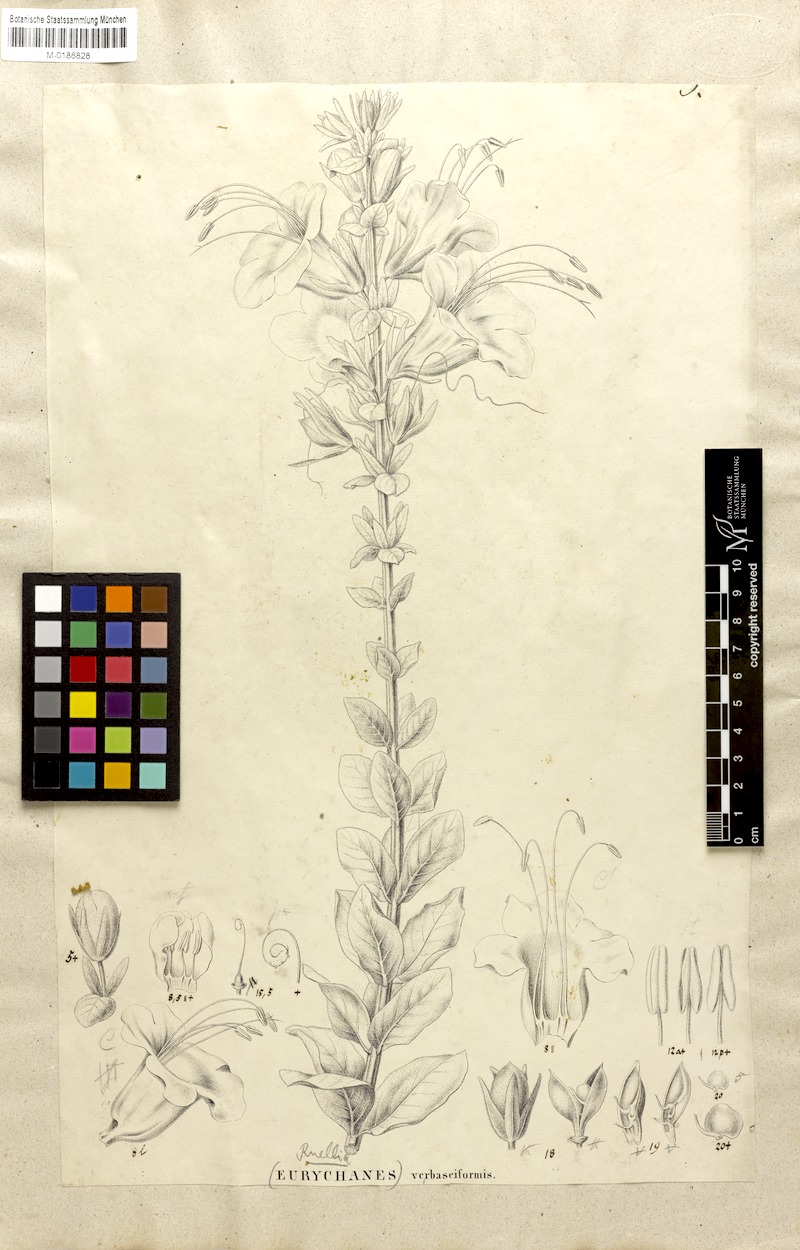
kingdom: Plantae
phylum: Tracheophyta
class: Magnoliopsida
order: Lamiales
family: Acanthaceae
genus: Ruellia
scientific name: Ruellia verbasciformis
